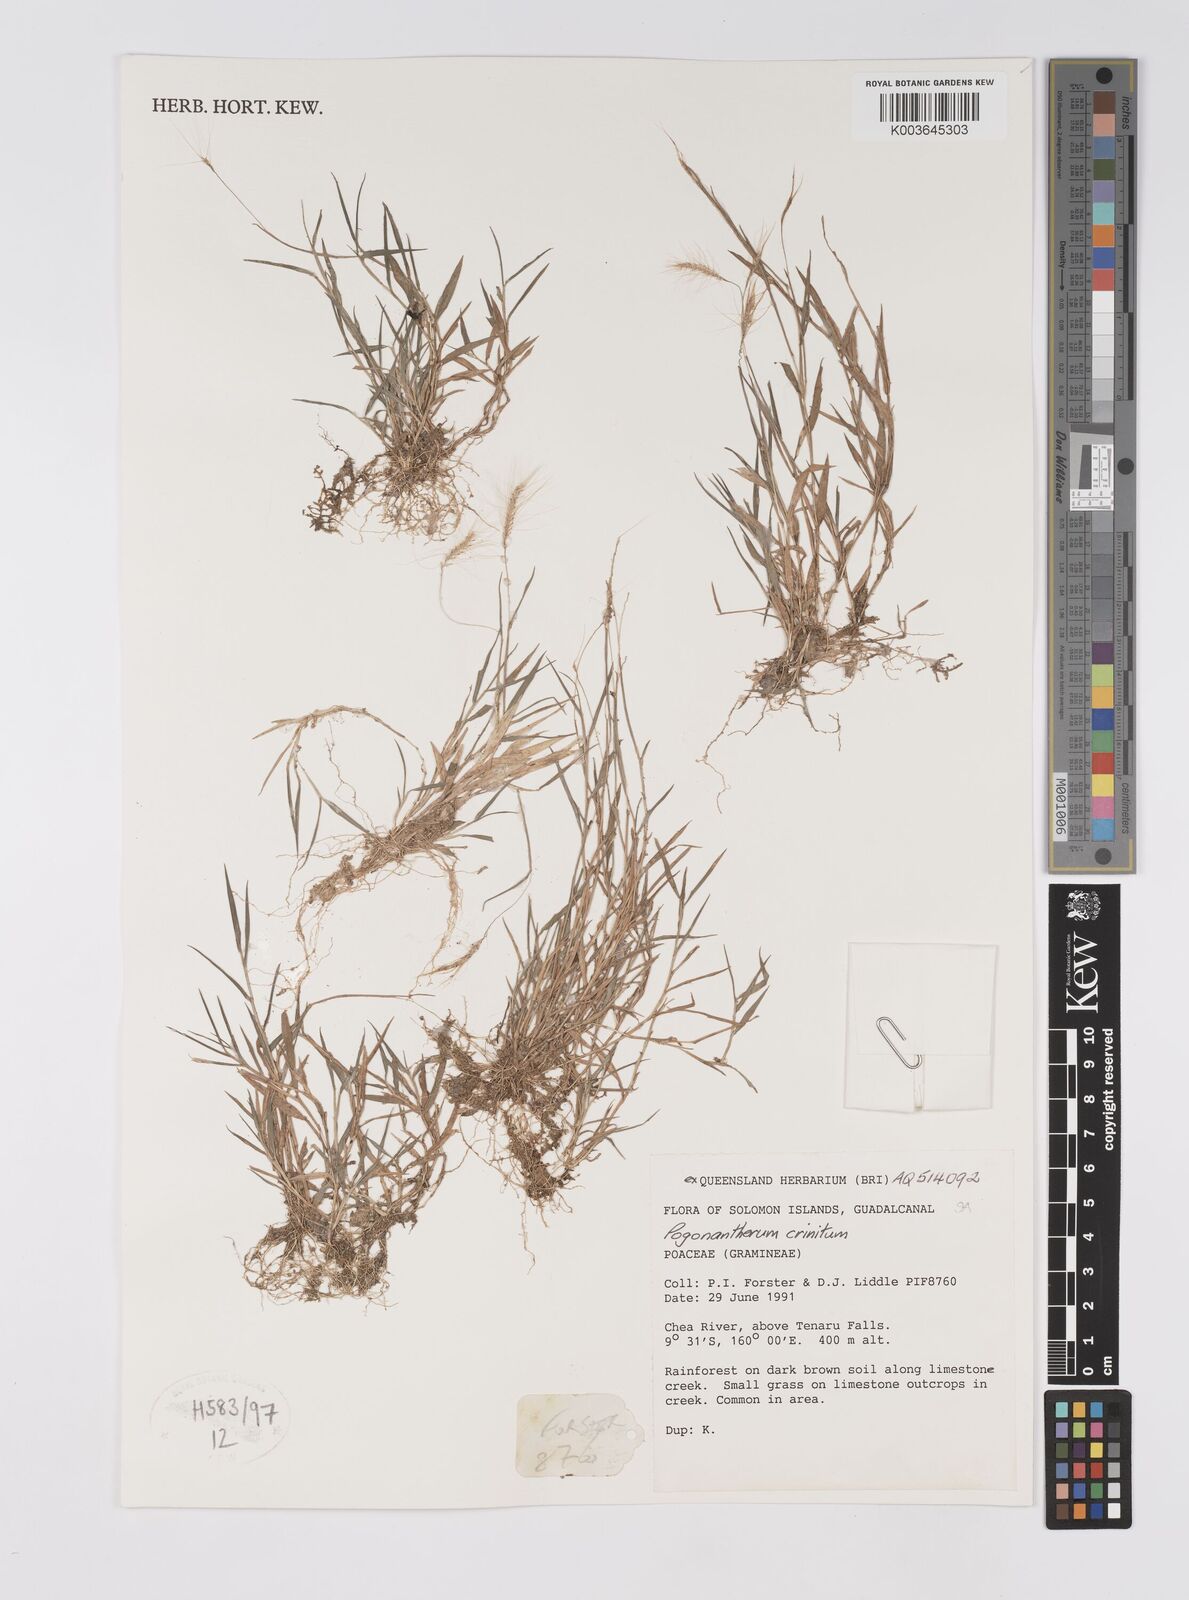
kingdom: Plantae
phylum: Tracheophyta
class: Liliopsida
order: Poales
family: Poaceae
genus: Pogonatherum
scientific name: Pogonatherum crinitum
